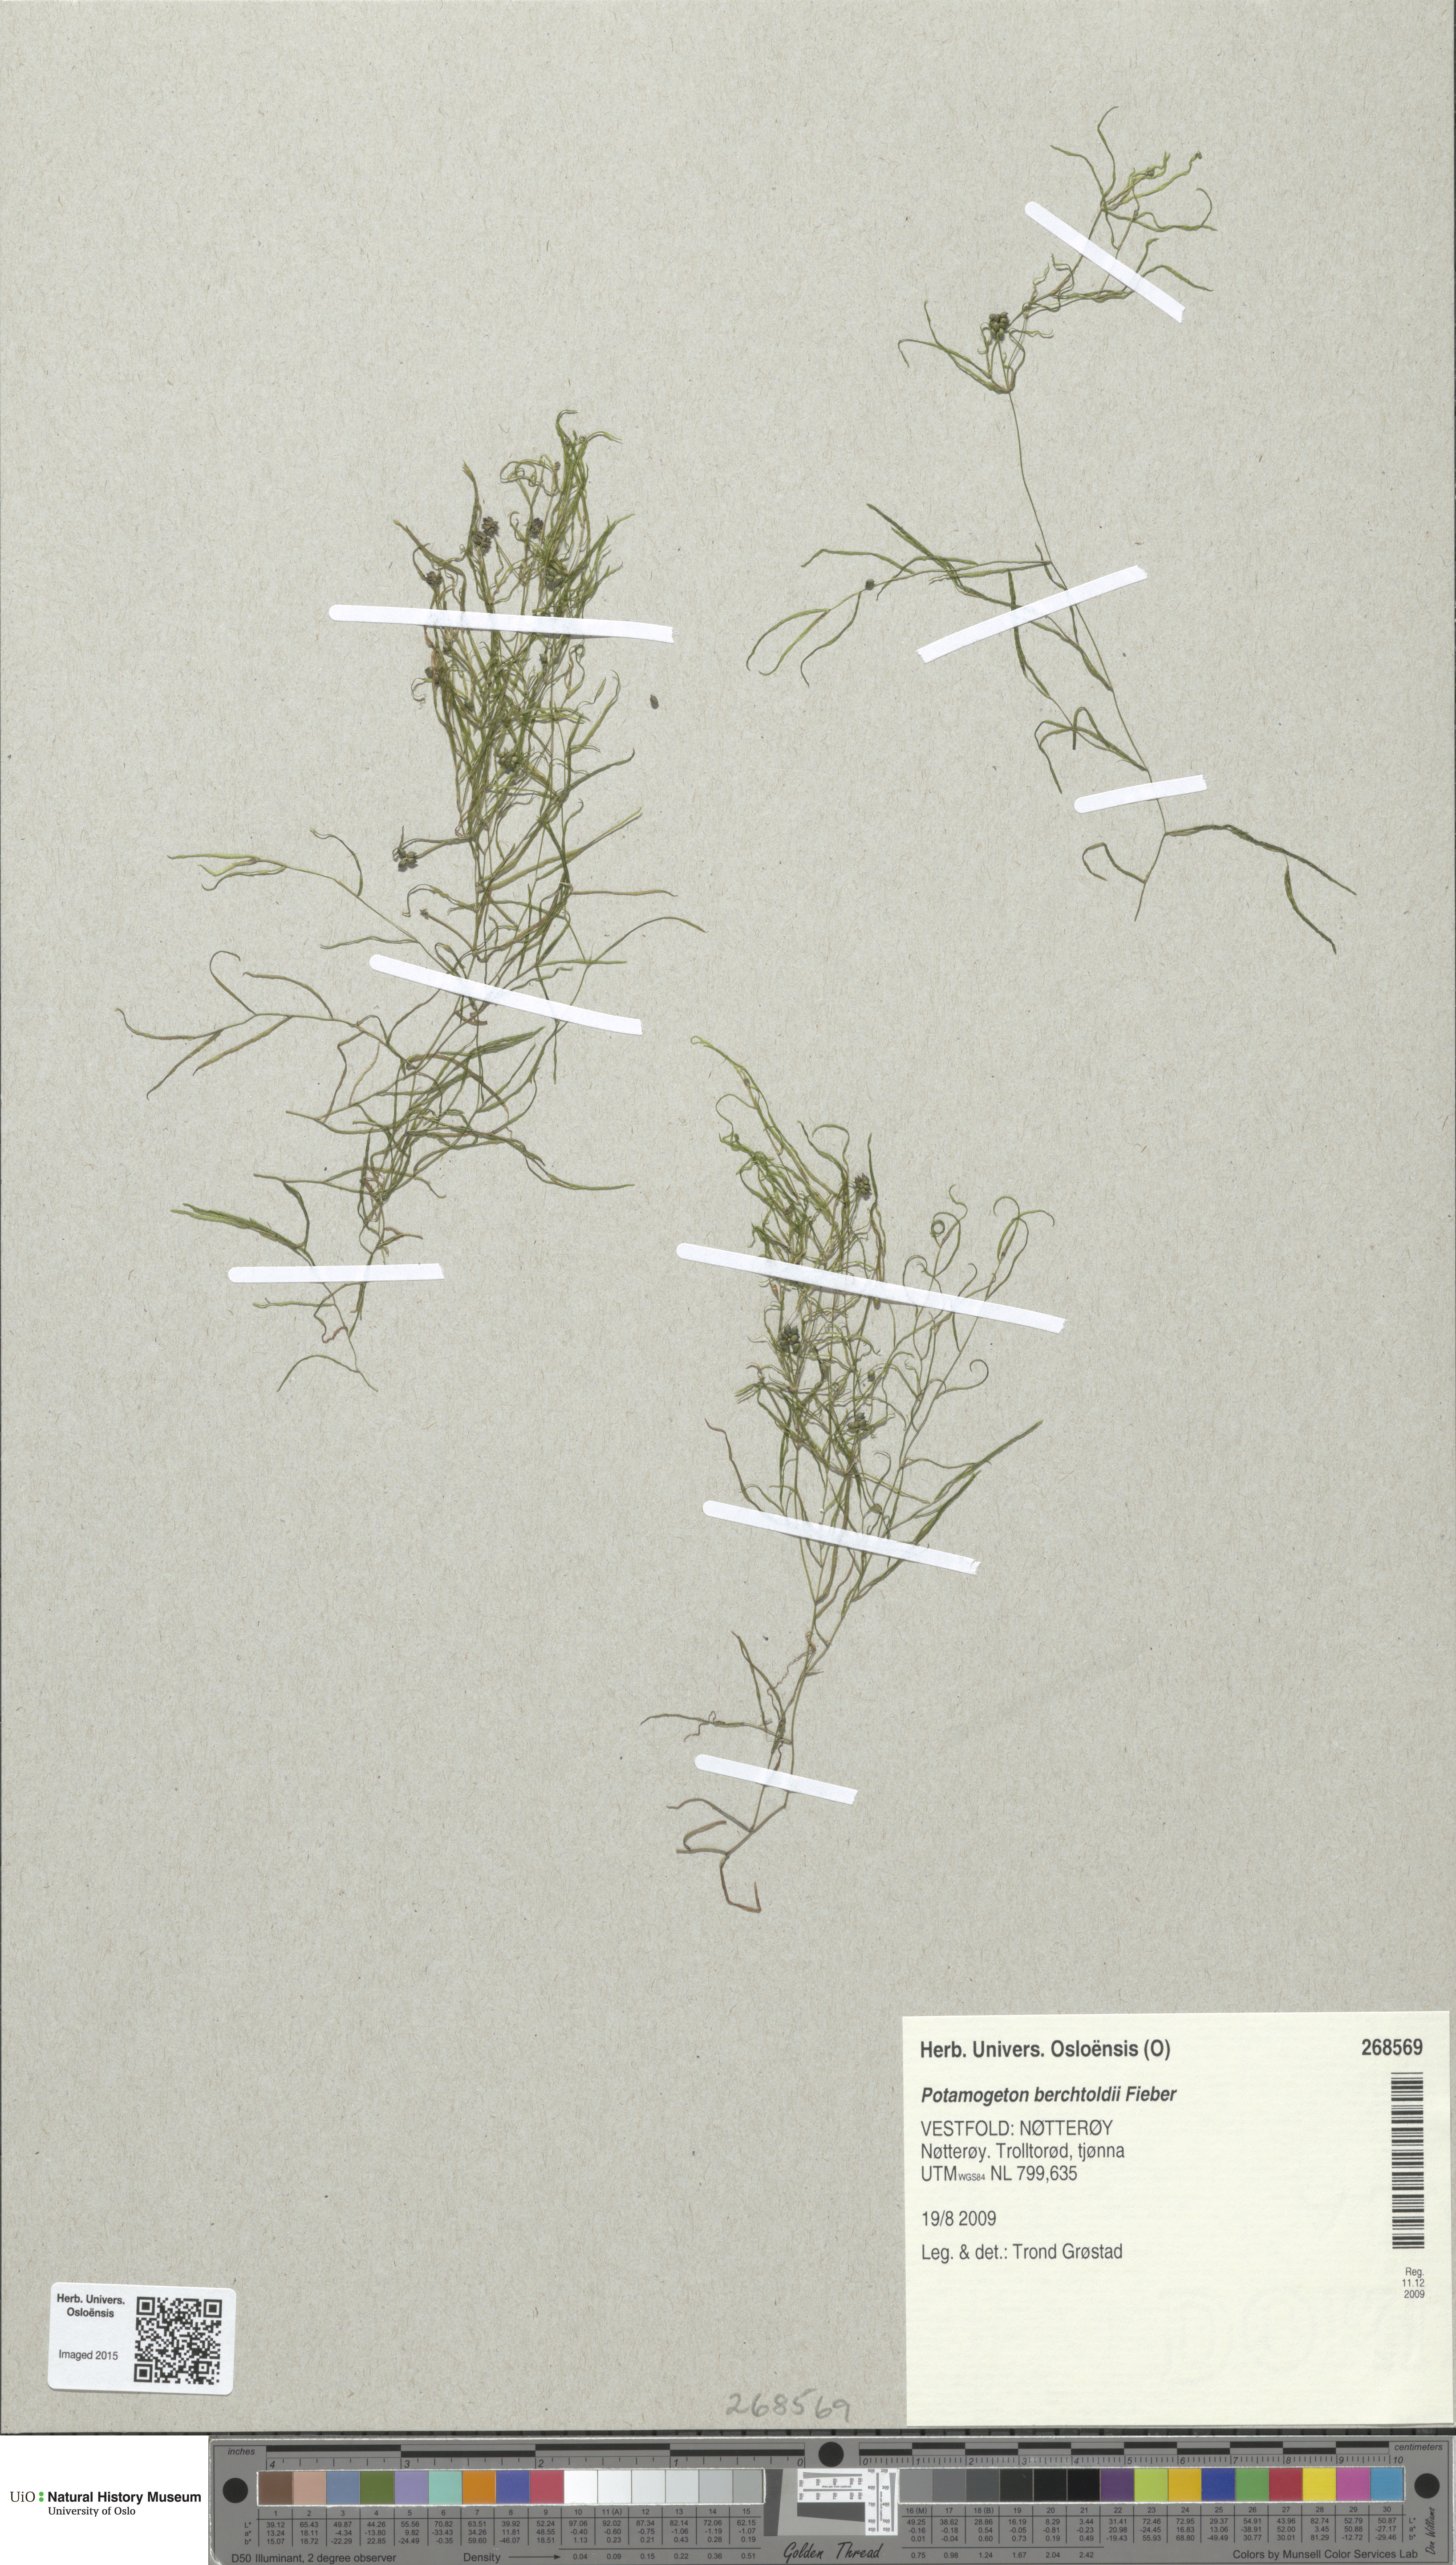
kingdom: Plantae
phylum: Tracheophyta
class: Liliopsida
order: Alismatales
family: Potamogetonaceae
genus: Potamogeton
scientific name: Potamogeton berchtoldii
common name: Small pondweed
